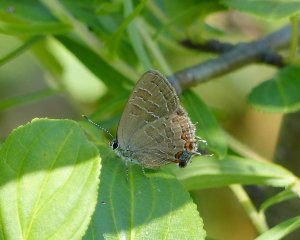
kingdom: Animalia
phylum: Arthropoda
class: Insecta
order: Lepidoptera
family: Lycaenidae
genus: Satyrium
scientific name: Satyrium liparops
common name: Striped Hairstreak
